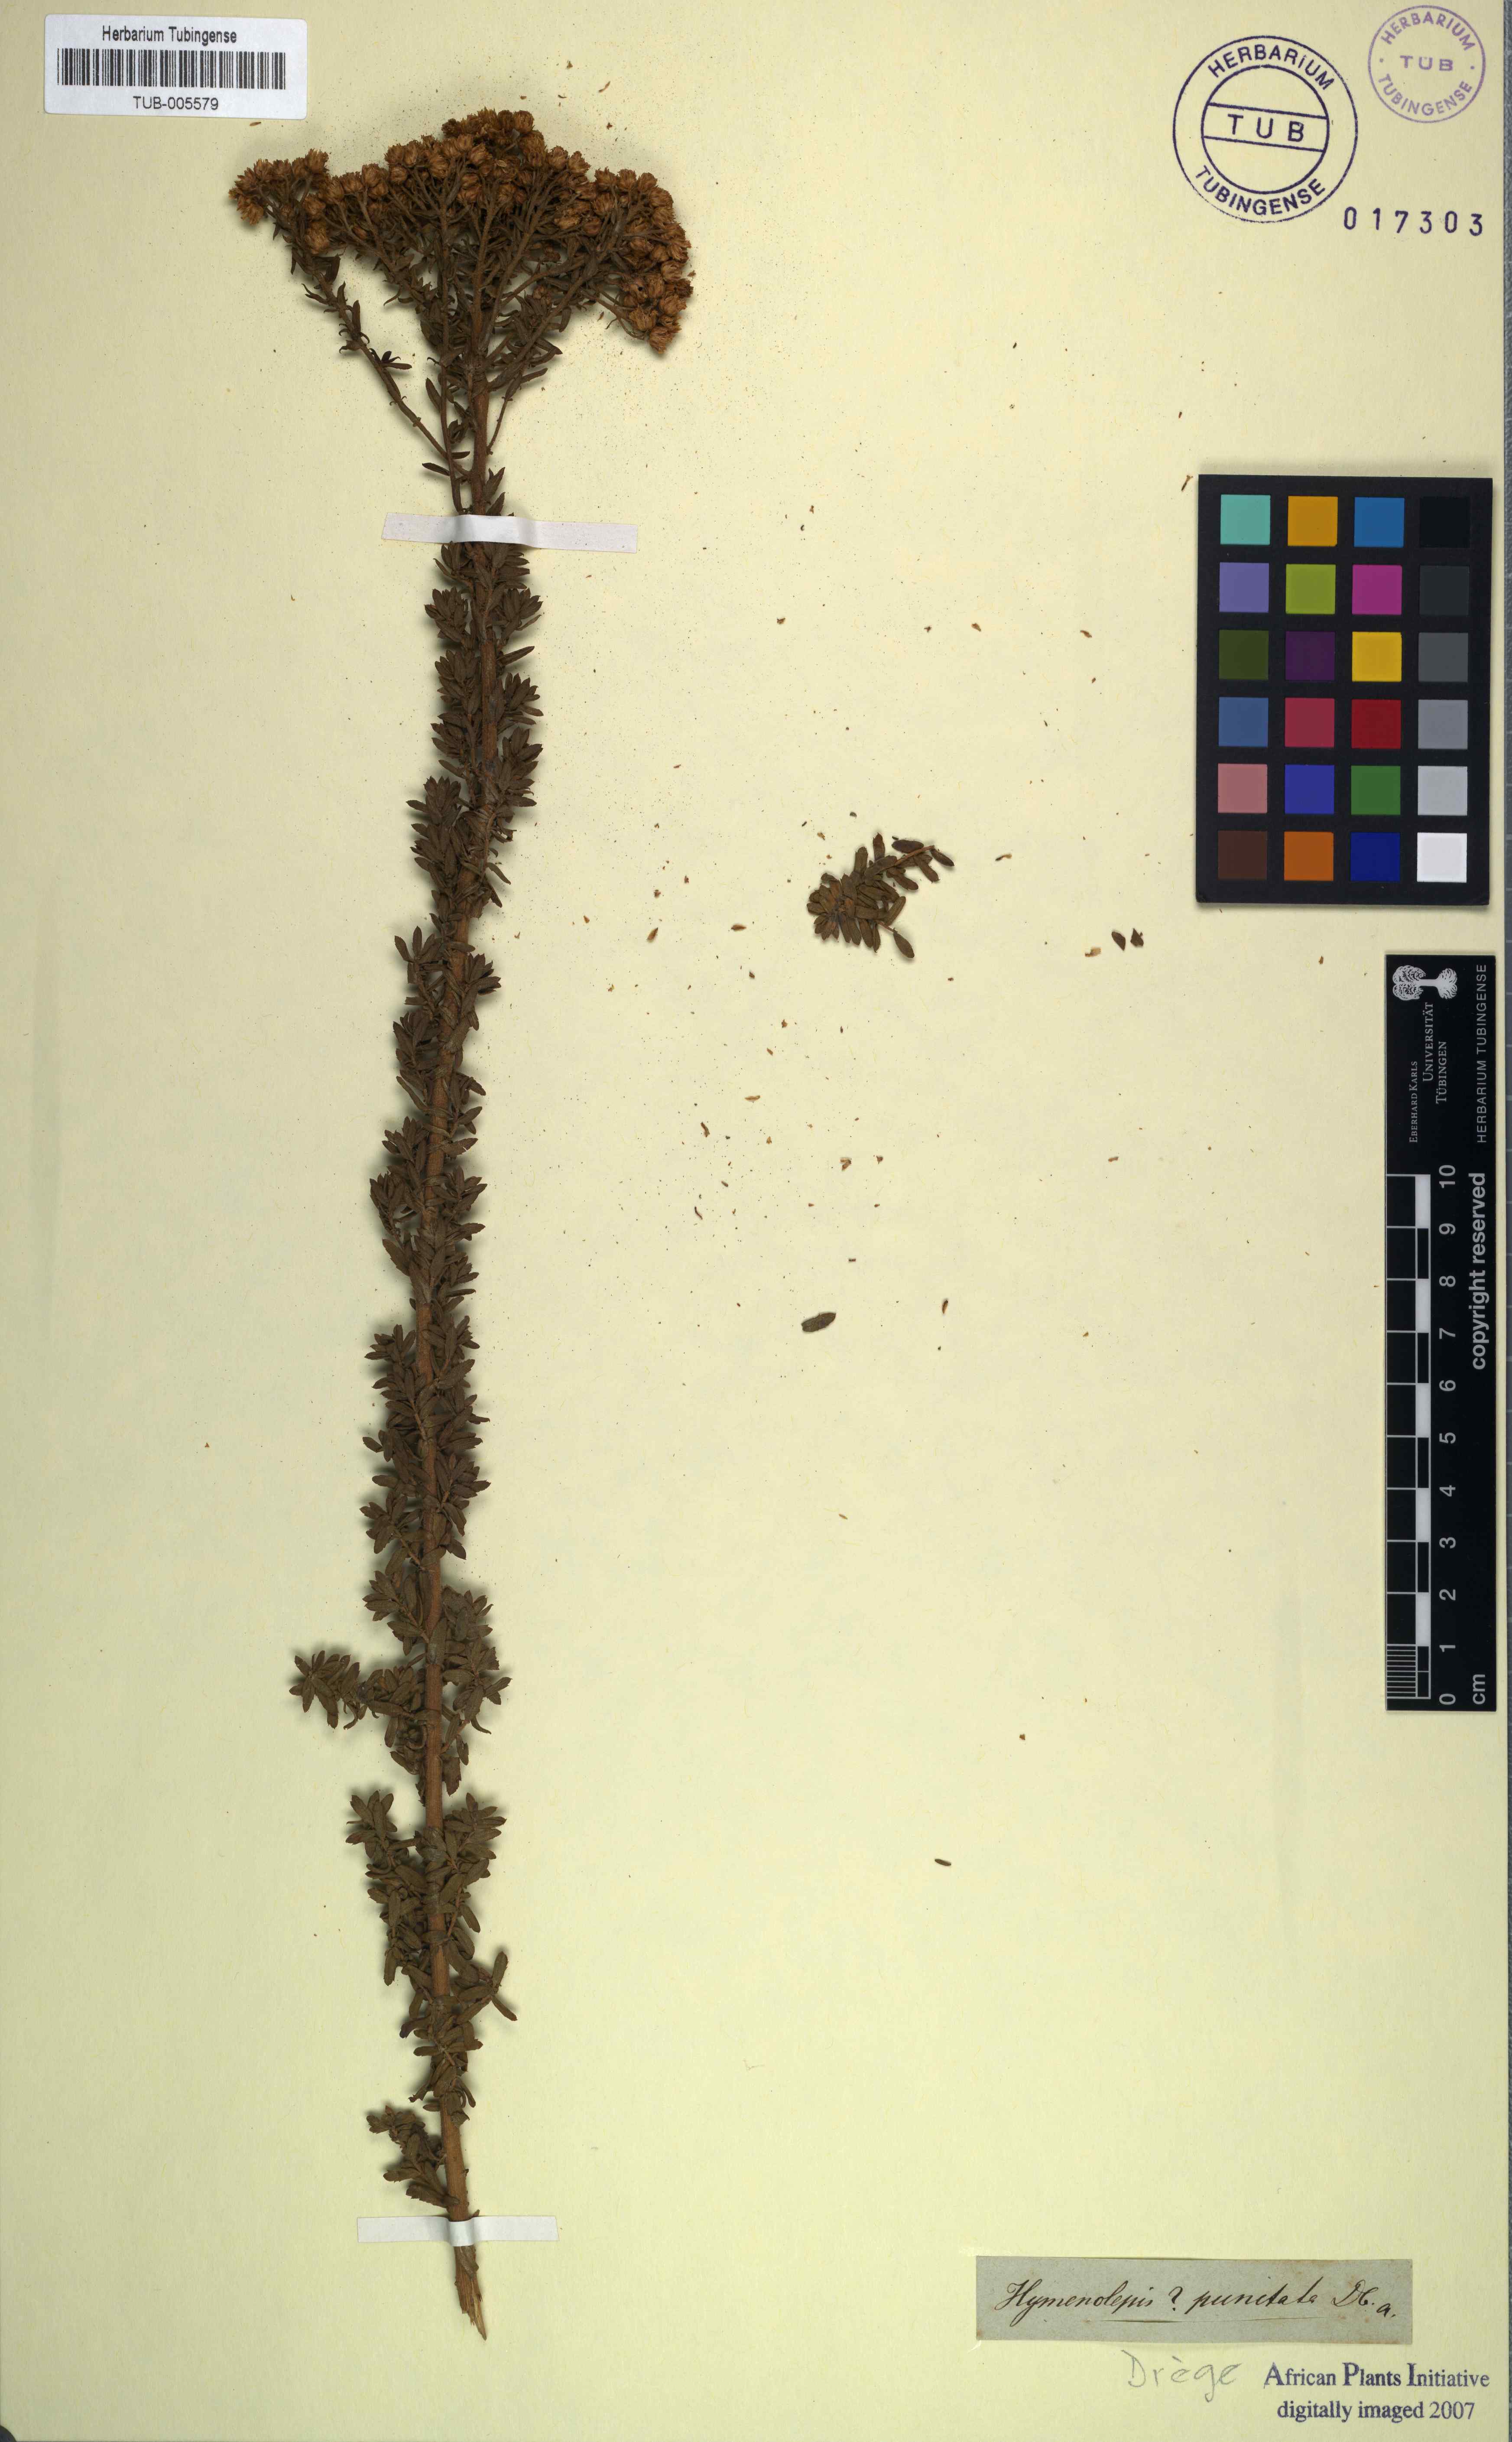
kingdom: Plantae
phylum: Tracheophyta
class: Magnoliopsida
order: Asterales
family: Asteraceae
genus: Inulanthera
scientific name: Inulanthera dregeana
